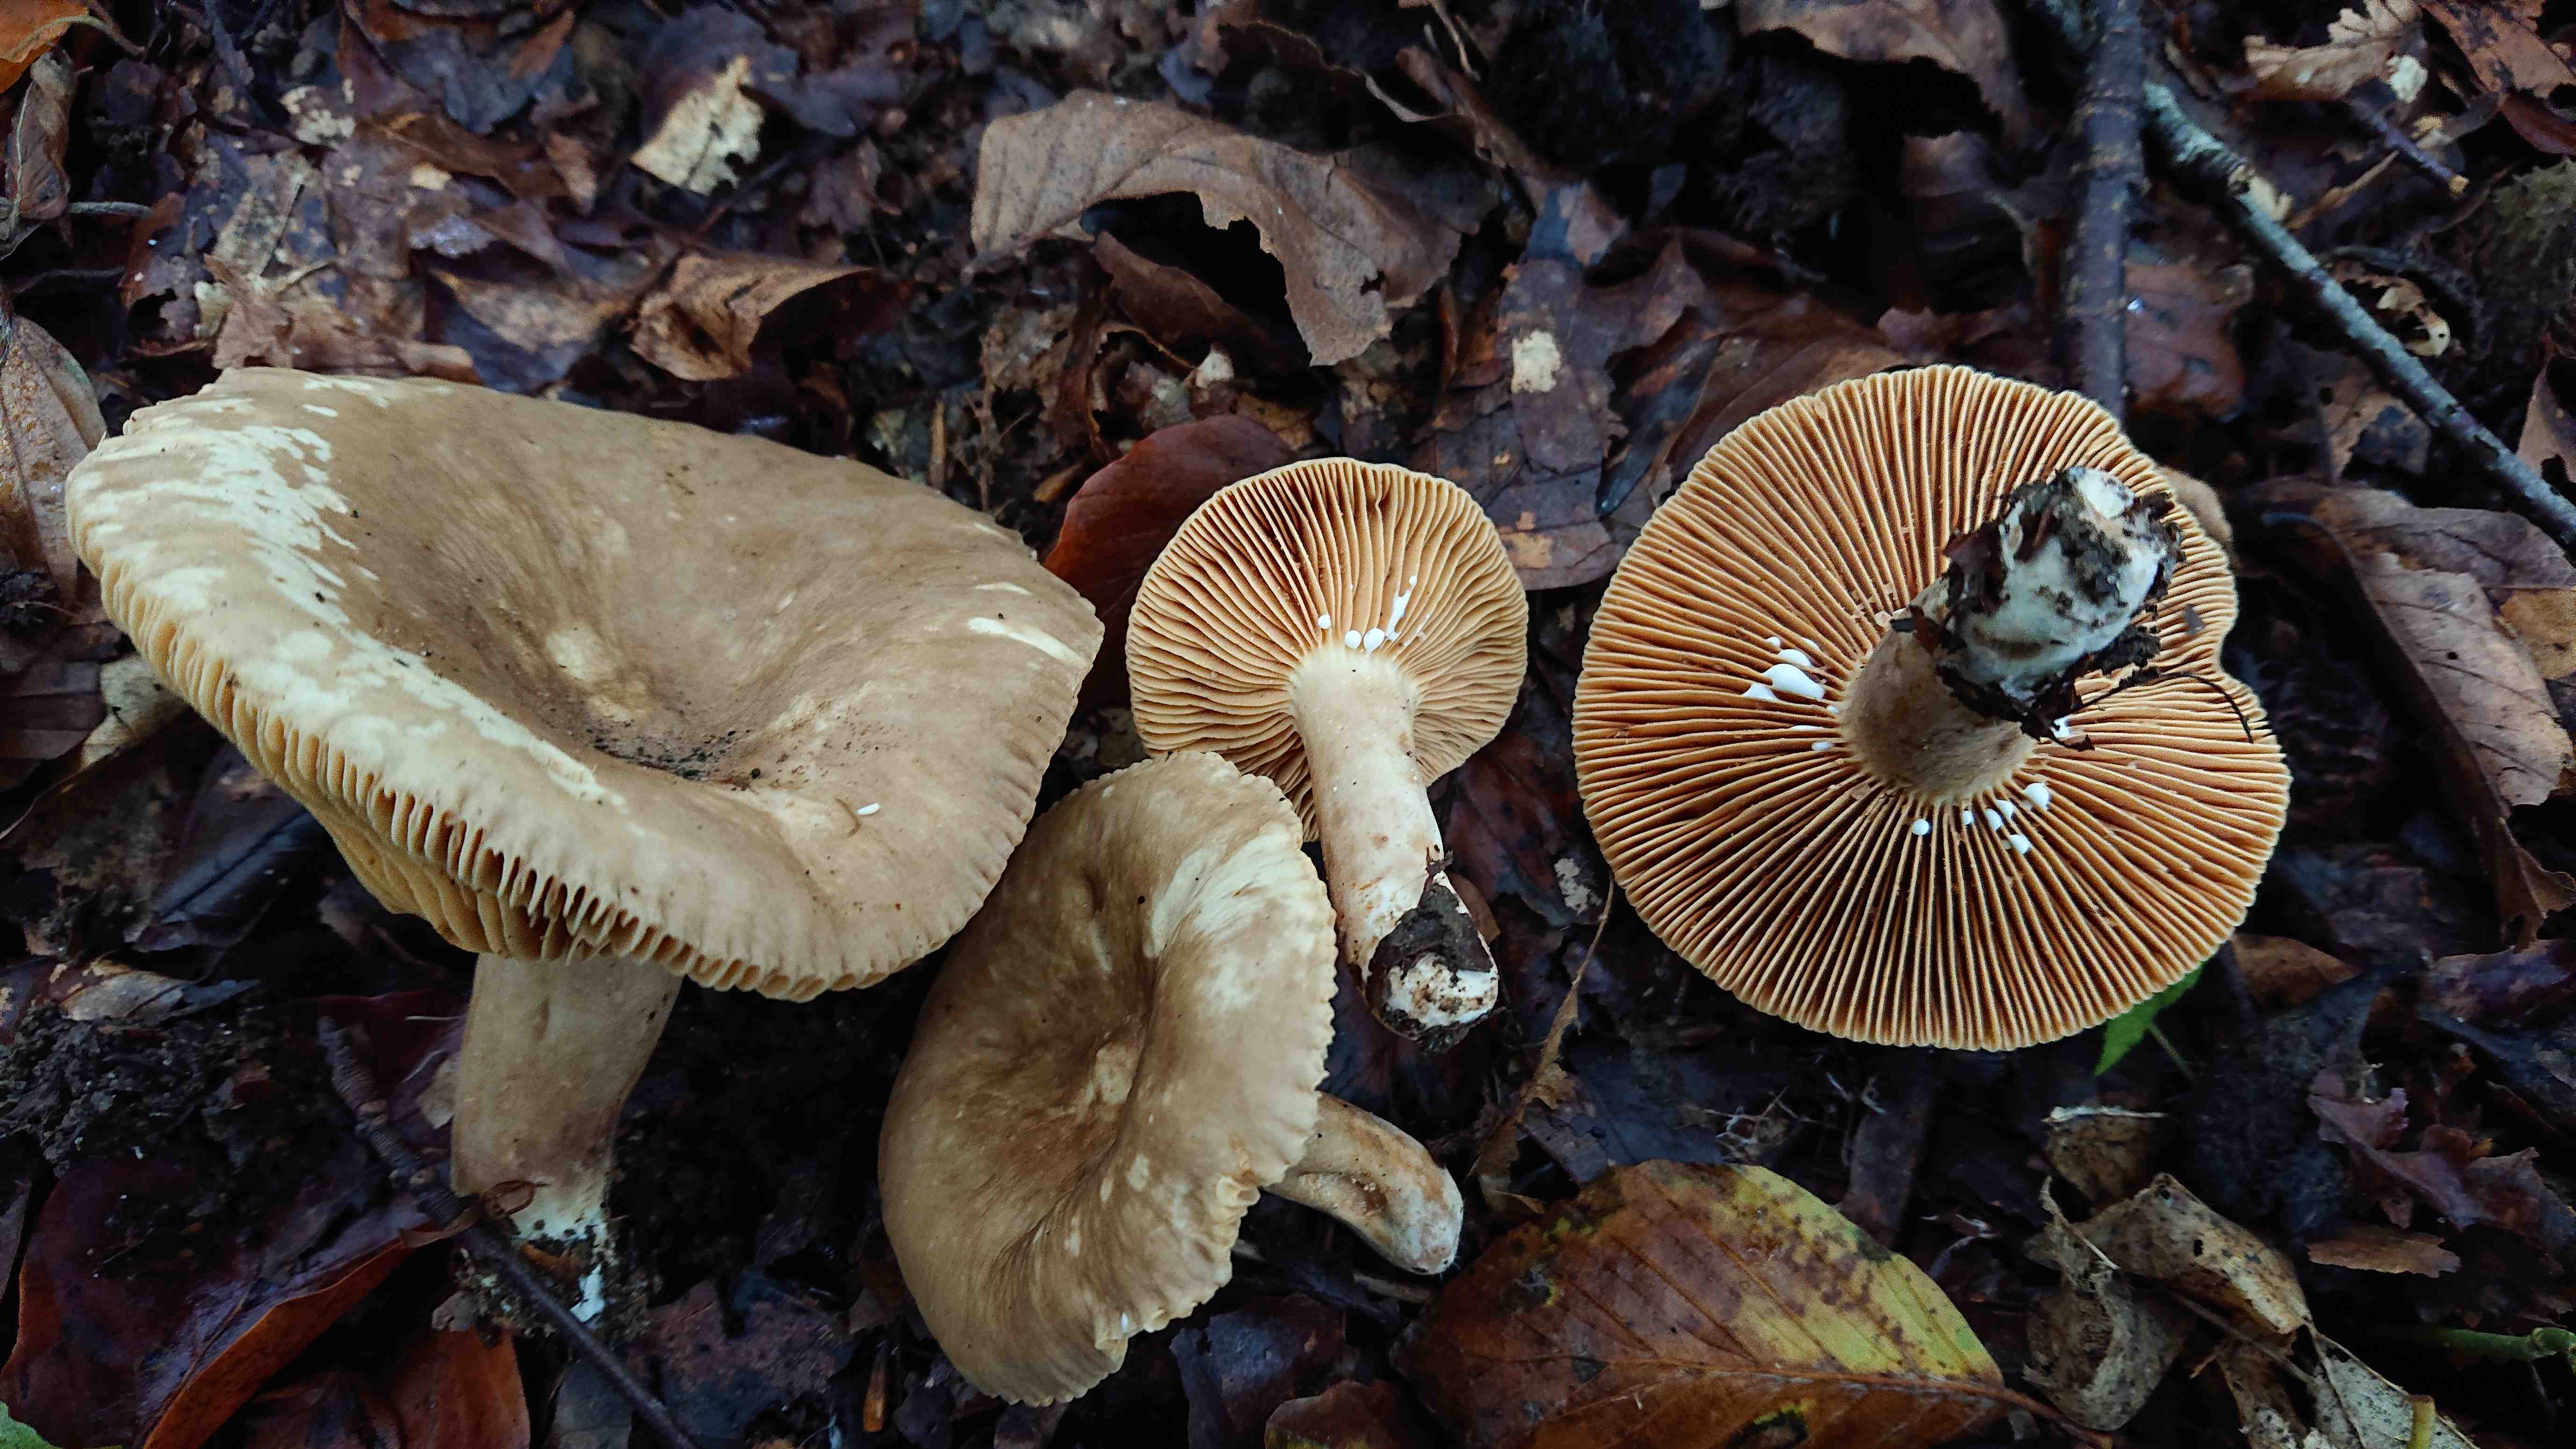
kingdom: Fungi
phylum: Basidiomycota
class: Agaricomycetes
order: Russulales
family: Russulaceae
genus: Lactarius
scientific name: Lactarius pterosporus
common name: vingesporet mælkehat
